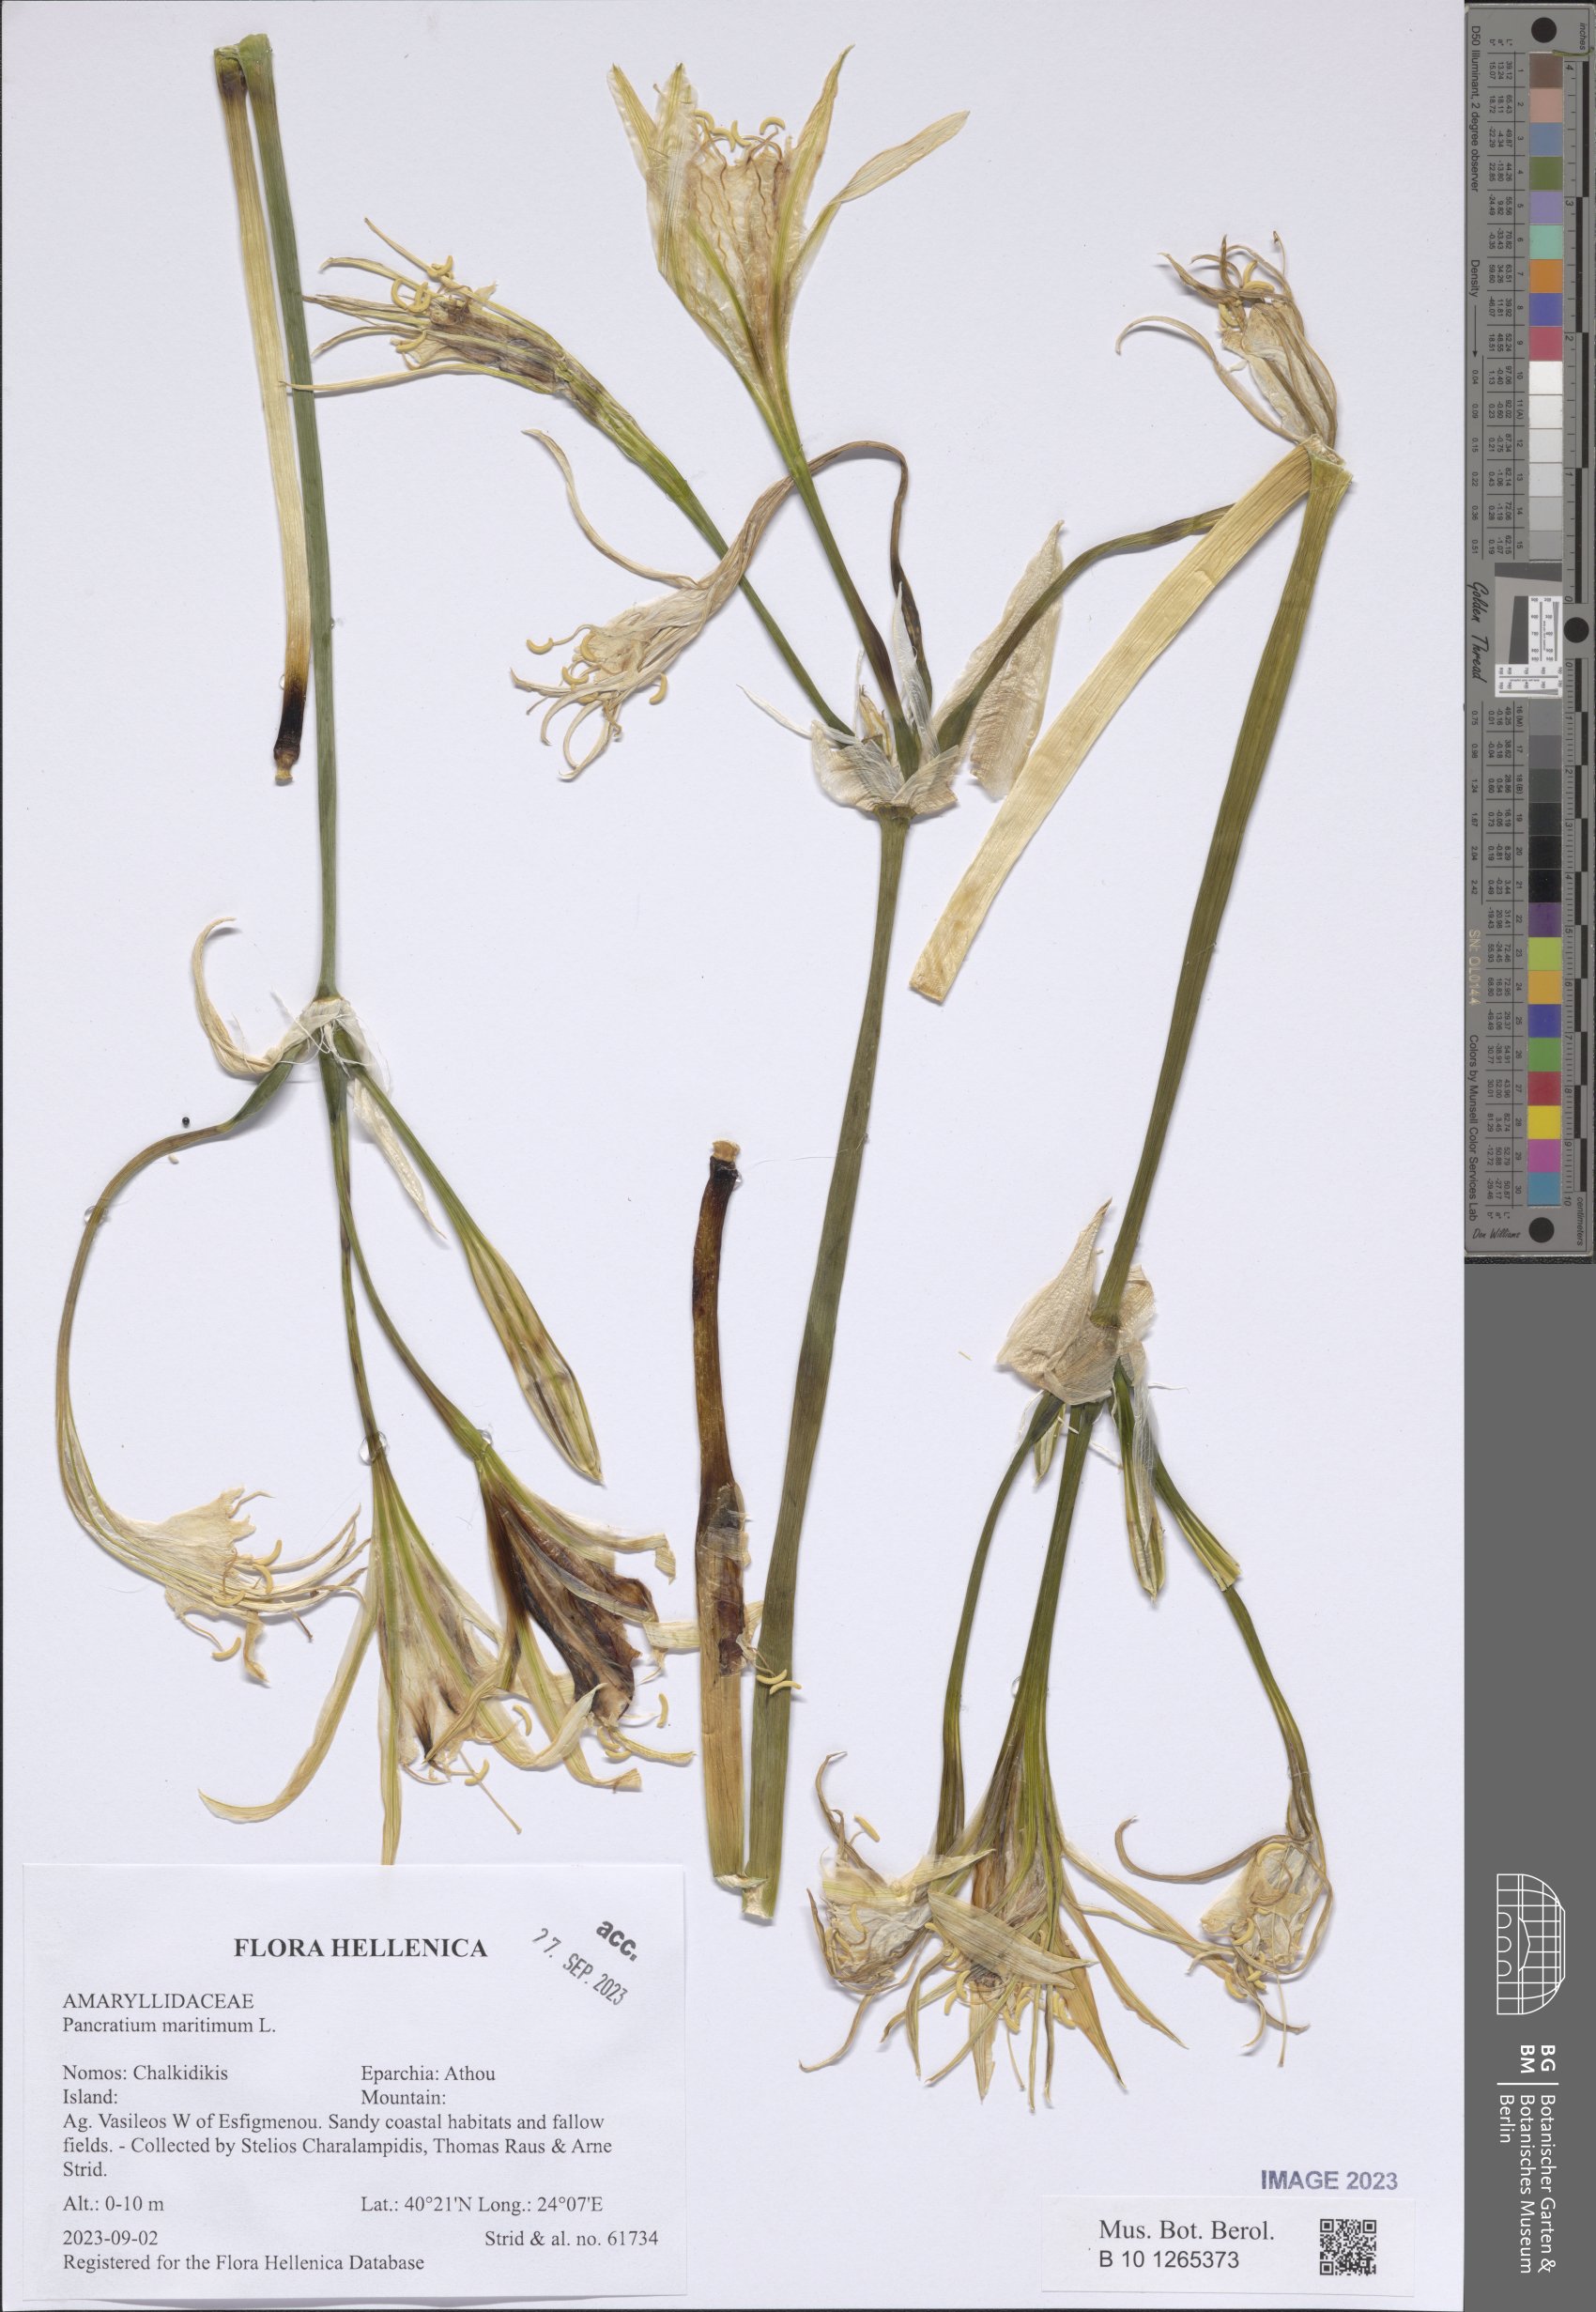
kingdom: Plantae
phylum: Tracheophyta
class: Liliopsida
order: Asparagales
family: Amaryllidaceae
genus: Pancratium
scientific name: Pancratium maritimum
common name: Sea-daffodil
